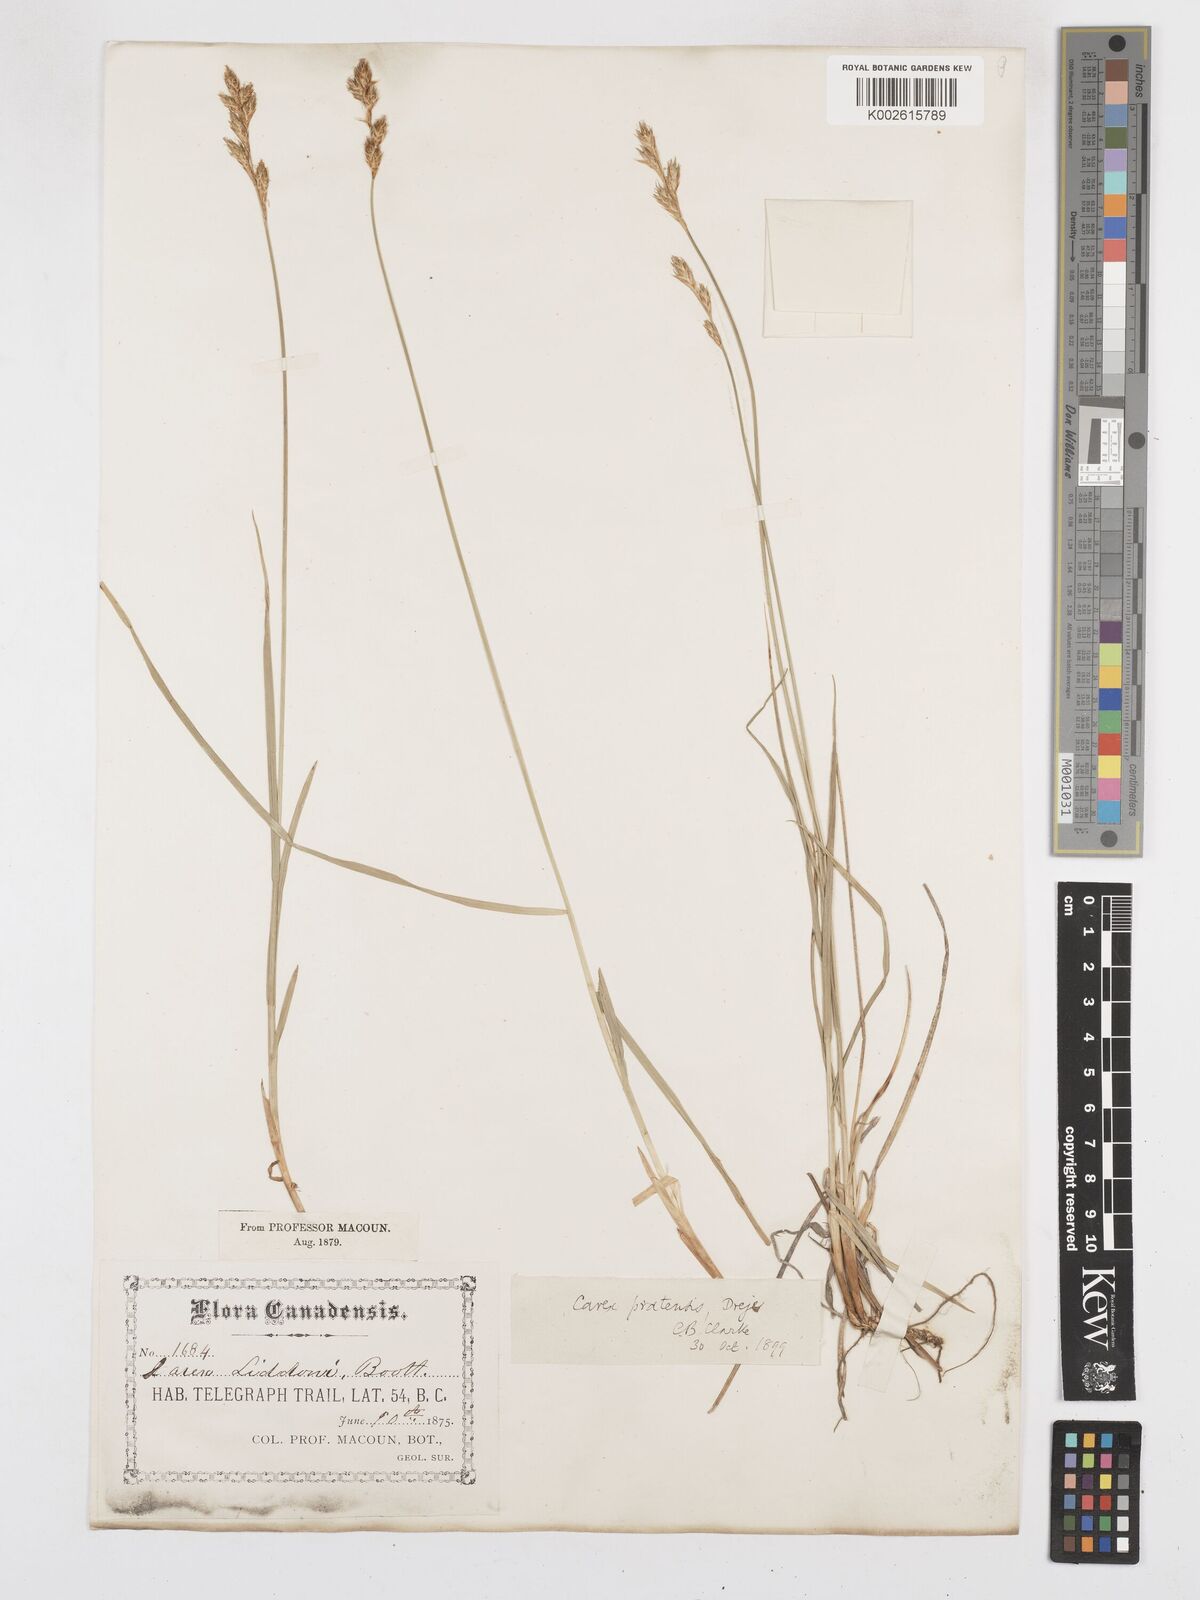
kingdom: Plantae
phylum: Tracheophyta
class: Liliopsida
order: Poales
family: Cyperaceae
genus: Carex
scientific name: Carex praticola
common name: Large-fruited oval sedge
